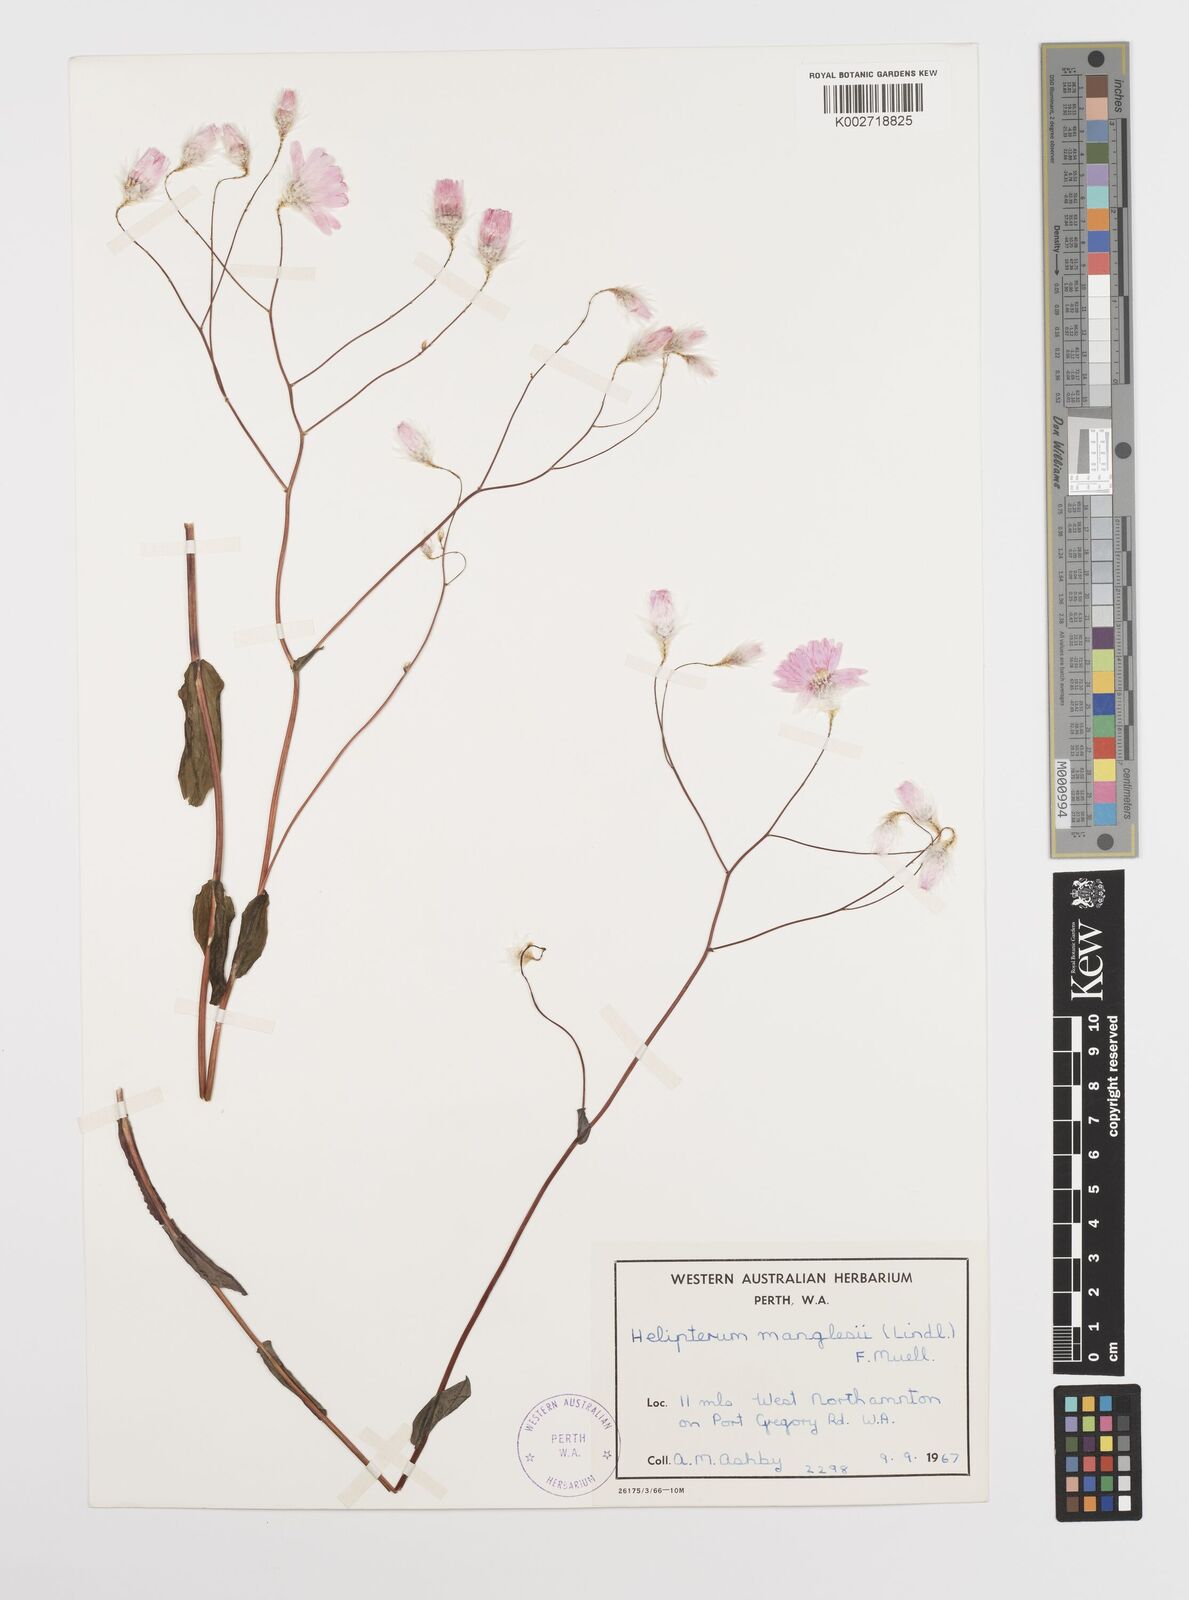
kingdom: Plantae
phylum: Tracheophyta
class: Magnoliopsida
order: Asterales
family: Asteraceae
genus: Rhodanthe
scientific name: Rhodanthe manglesii
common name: Pink sunray
